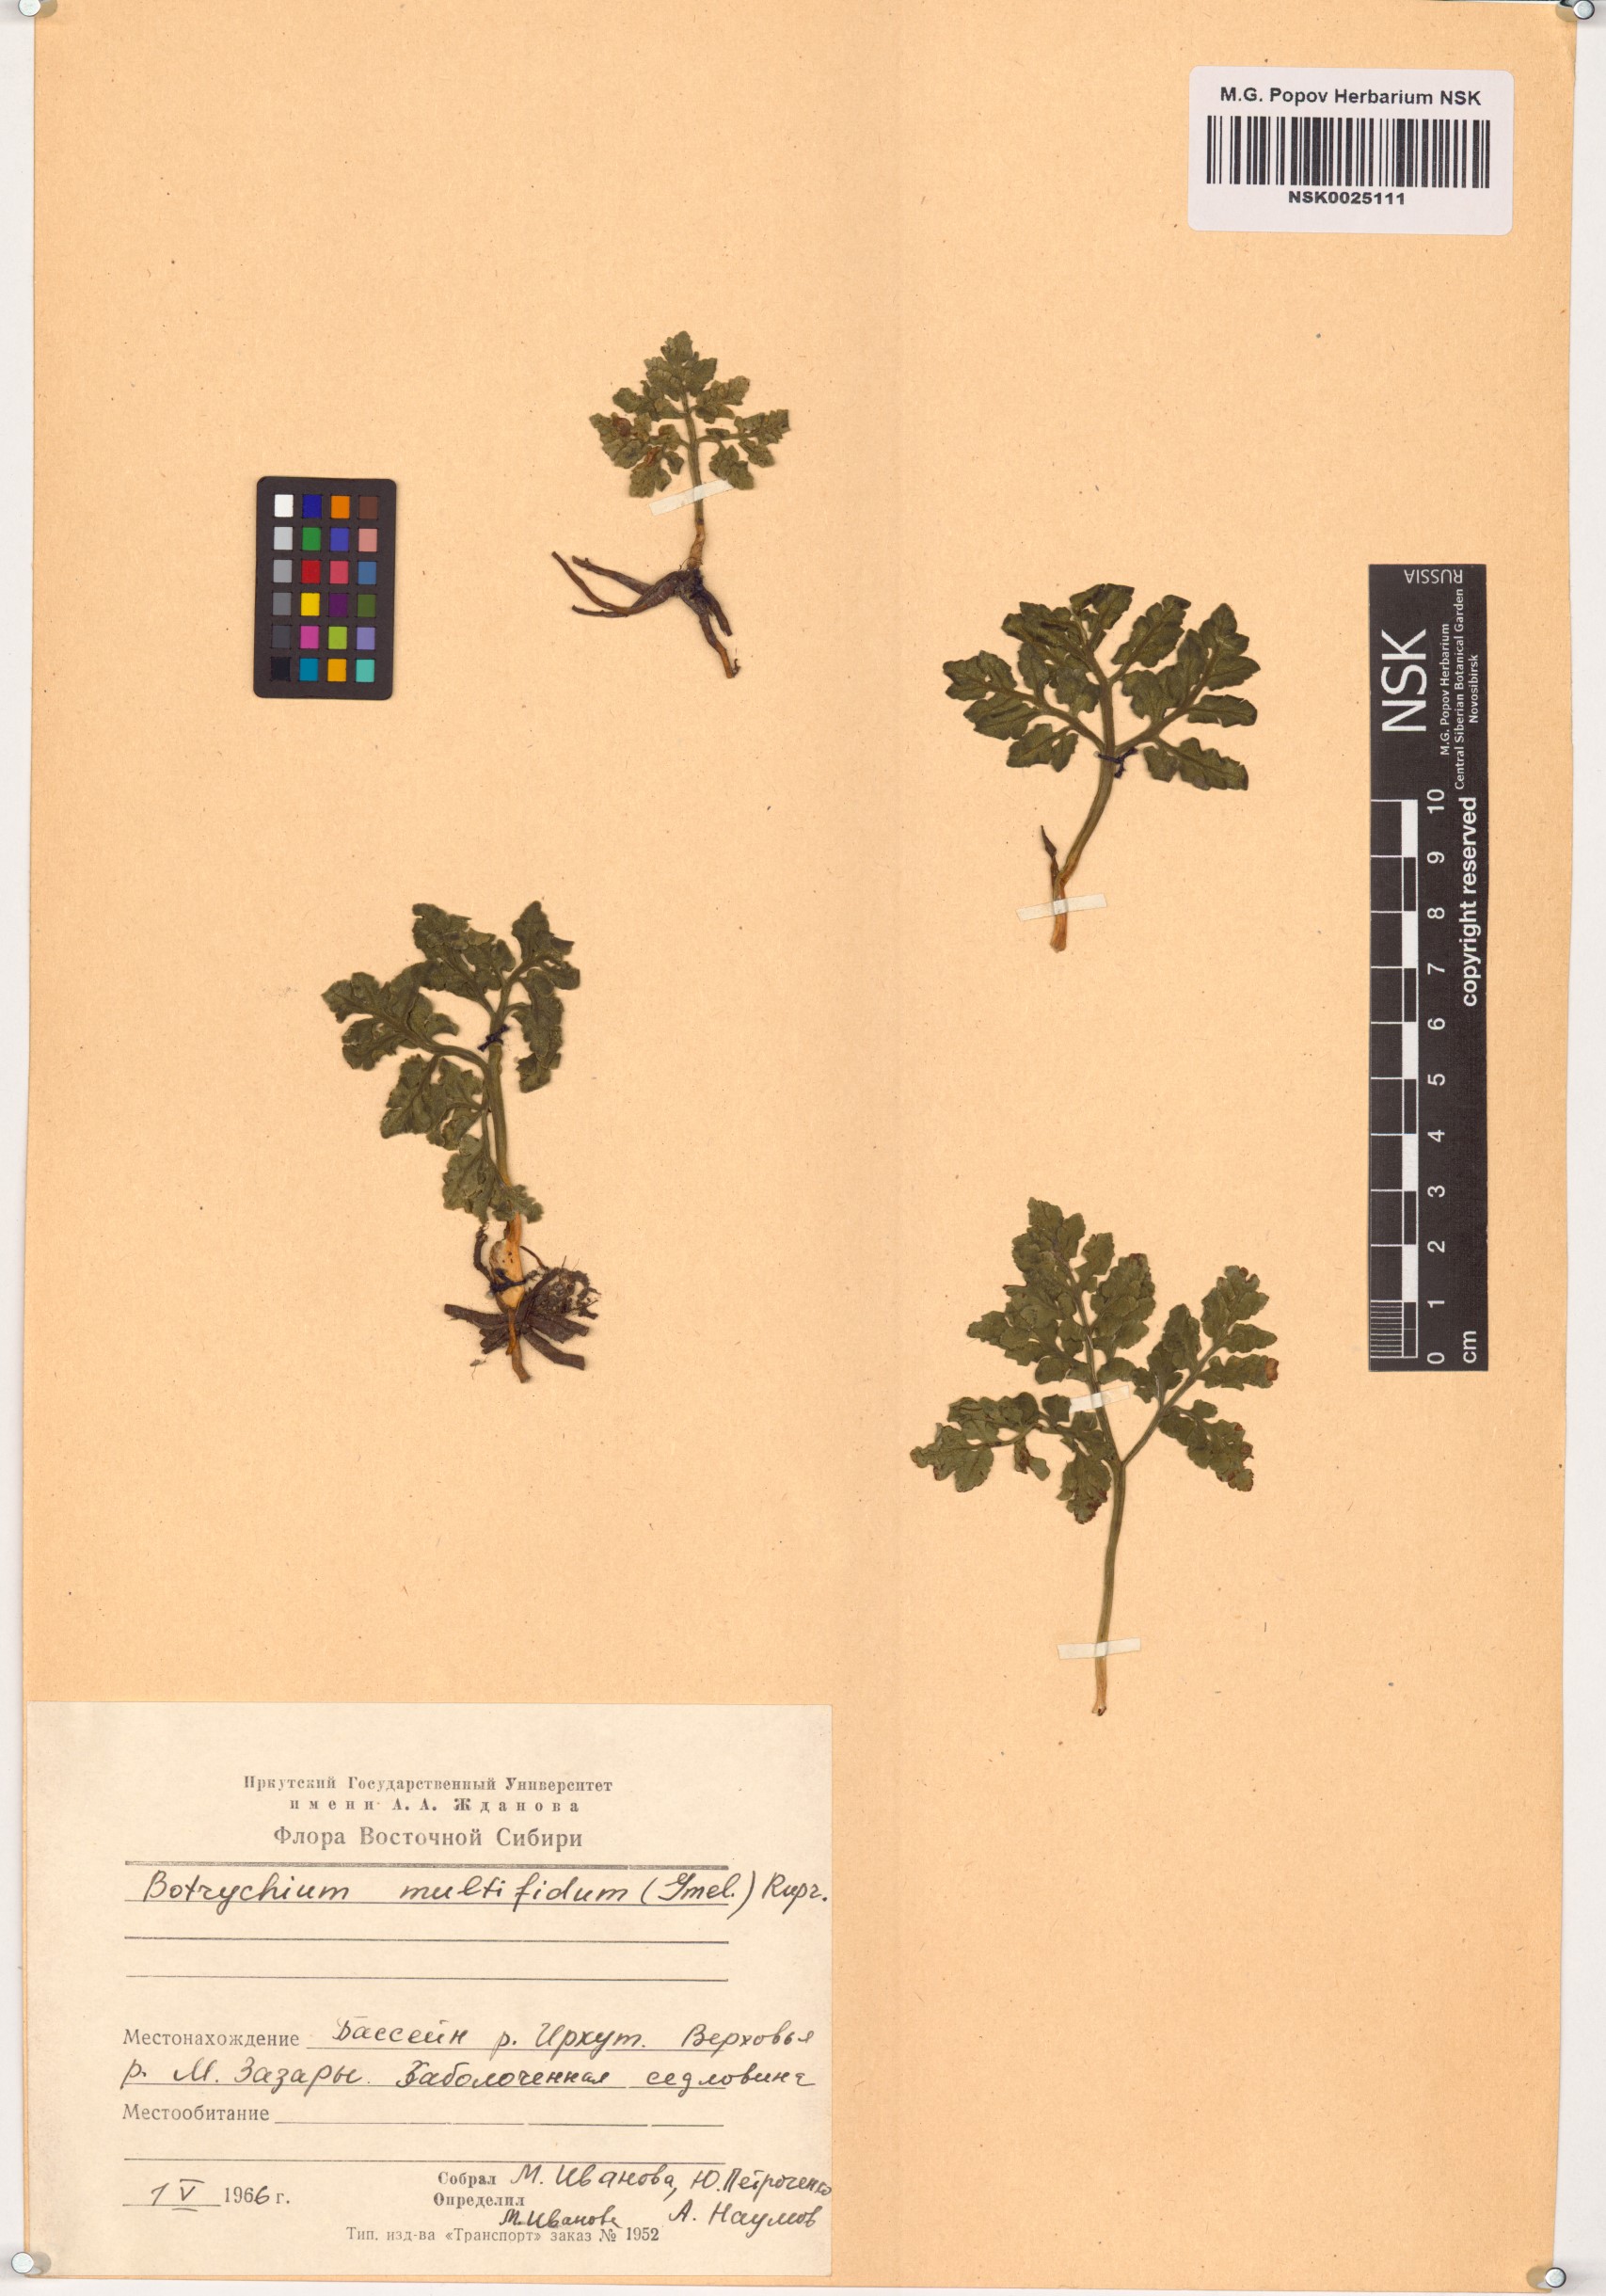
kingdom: Plantae
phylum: Tracheophyta
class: Polypodiopsida
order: Ophioglossales
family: Ophioglossaceae
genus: Sceptridium
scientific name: Sceptridium multifidum
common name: Leathery grape fern
